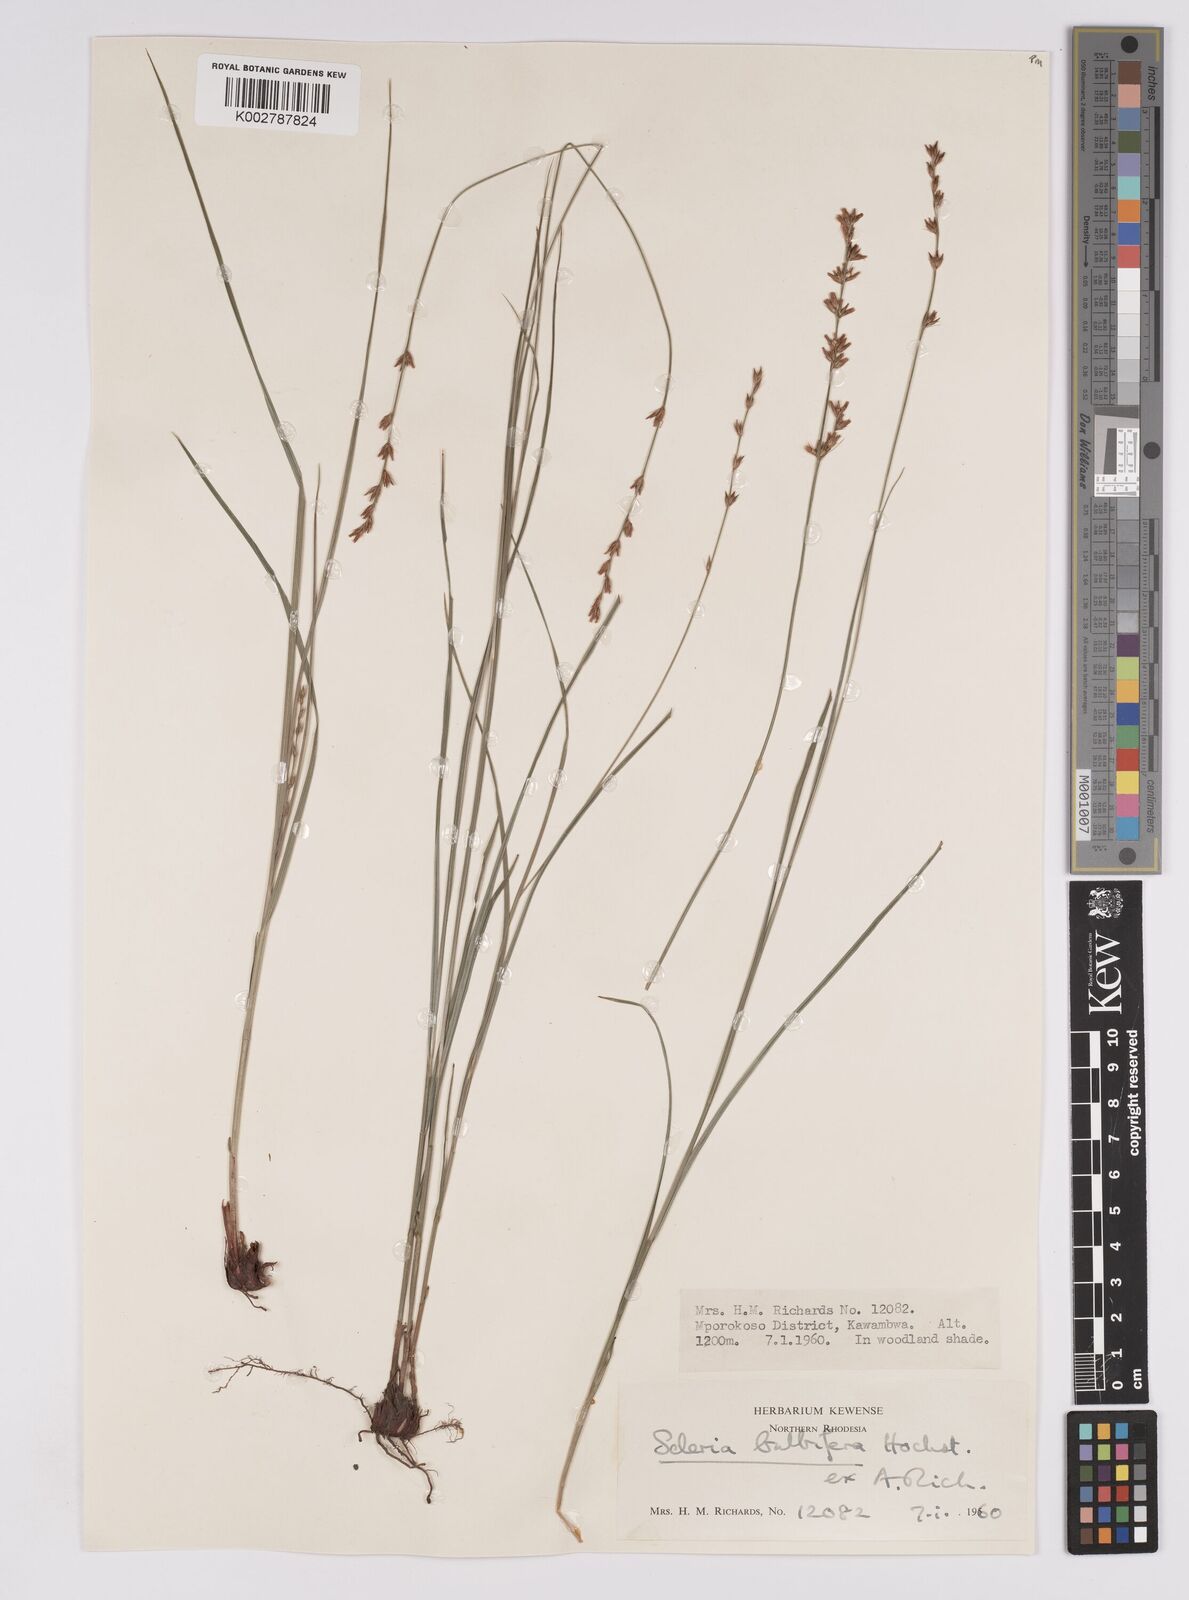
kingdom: Plantae
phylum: Tracheophyta
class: Liliopsida
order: Poales
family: Cyperaceae
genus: Scleria
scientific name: Scleria bulbifera
